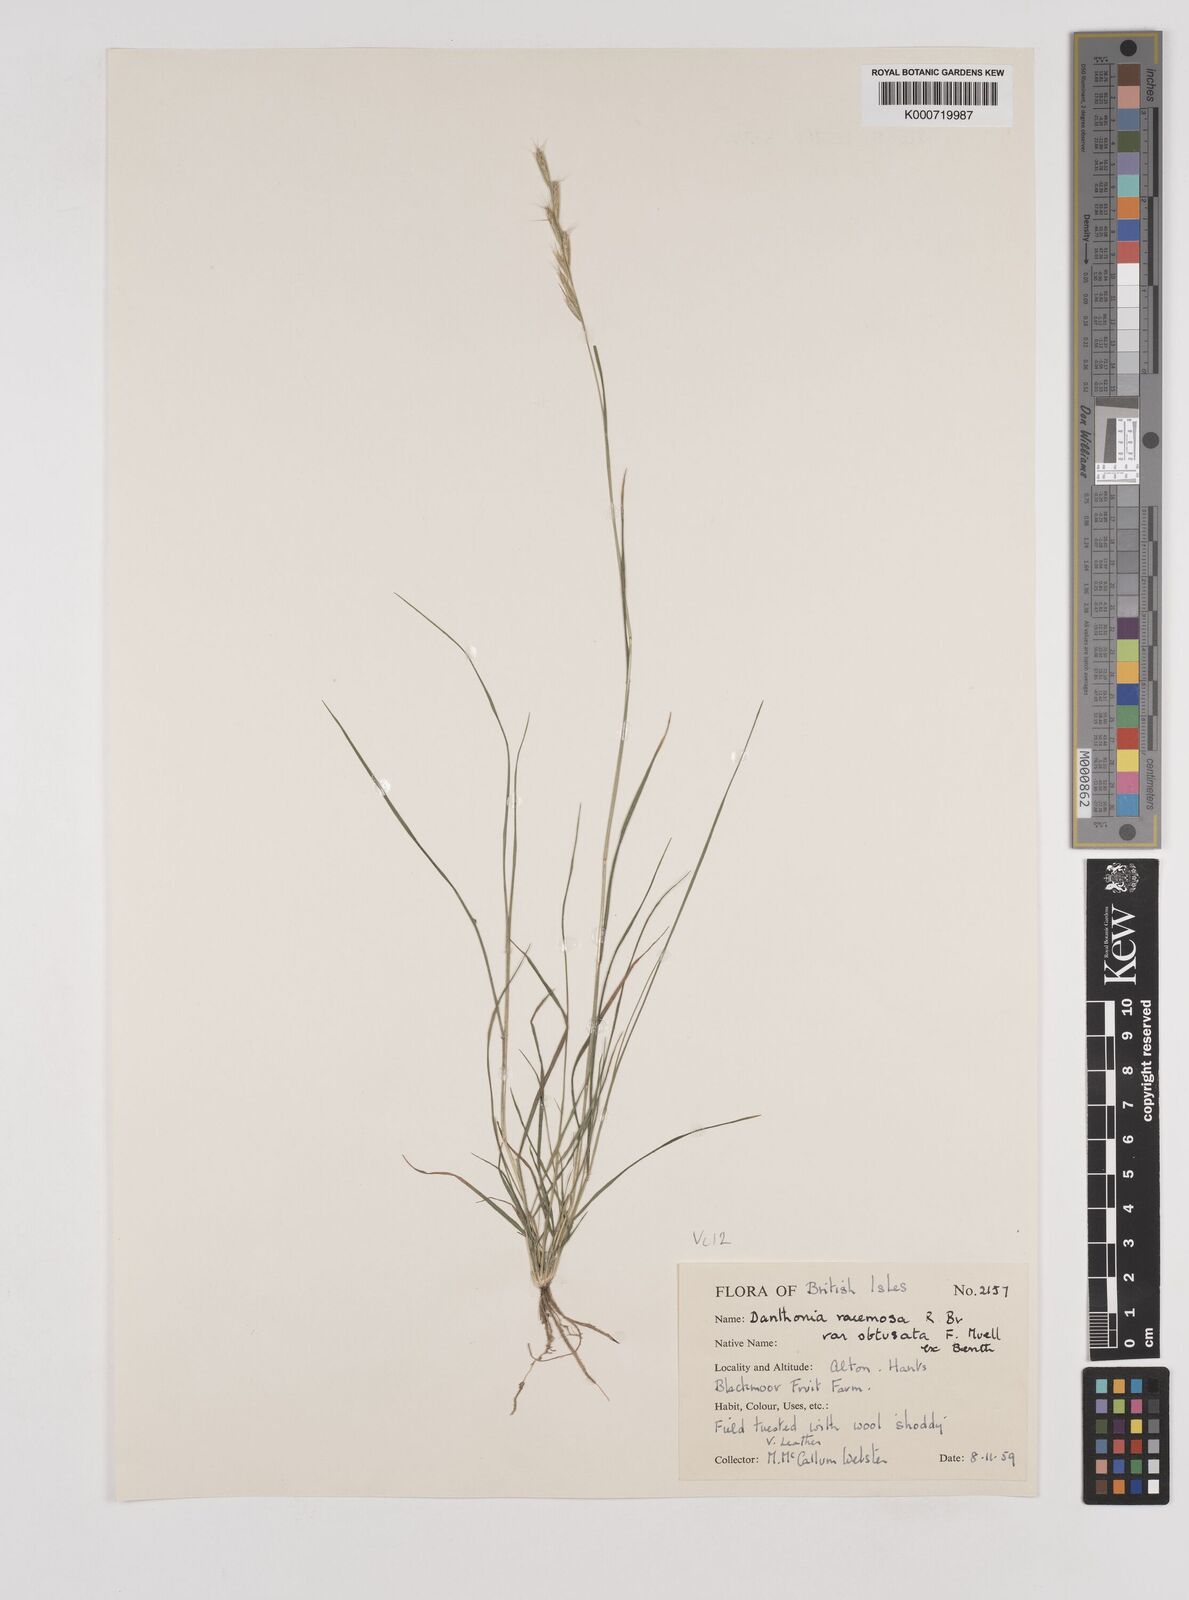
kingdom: Plantae
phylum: Tracheophyta
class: Liliopsida
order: Poales
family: Poaceae
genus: Rytidosperma
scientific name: Rytidosperma racemosum
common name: Wallaby-grass
